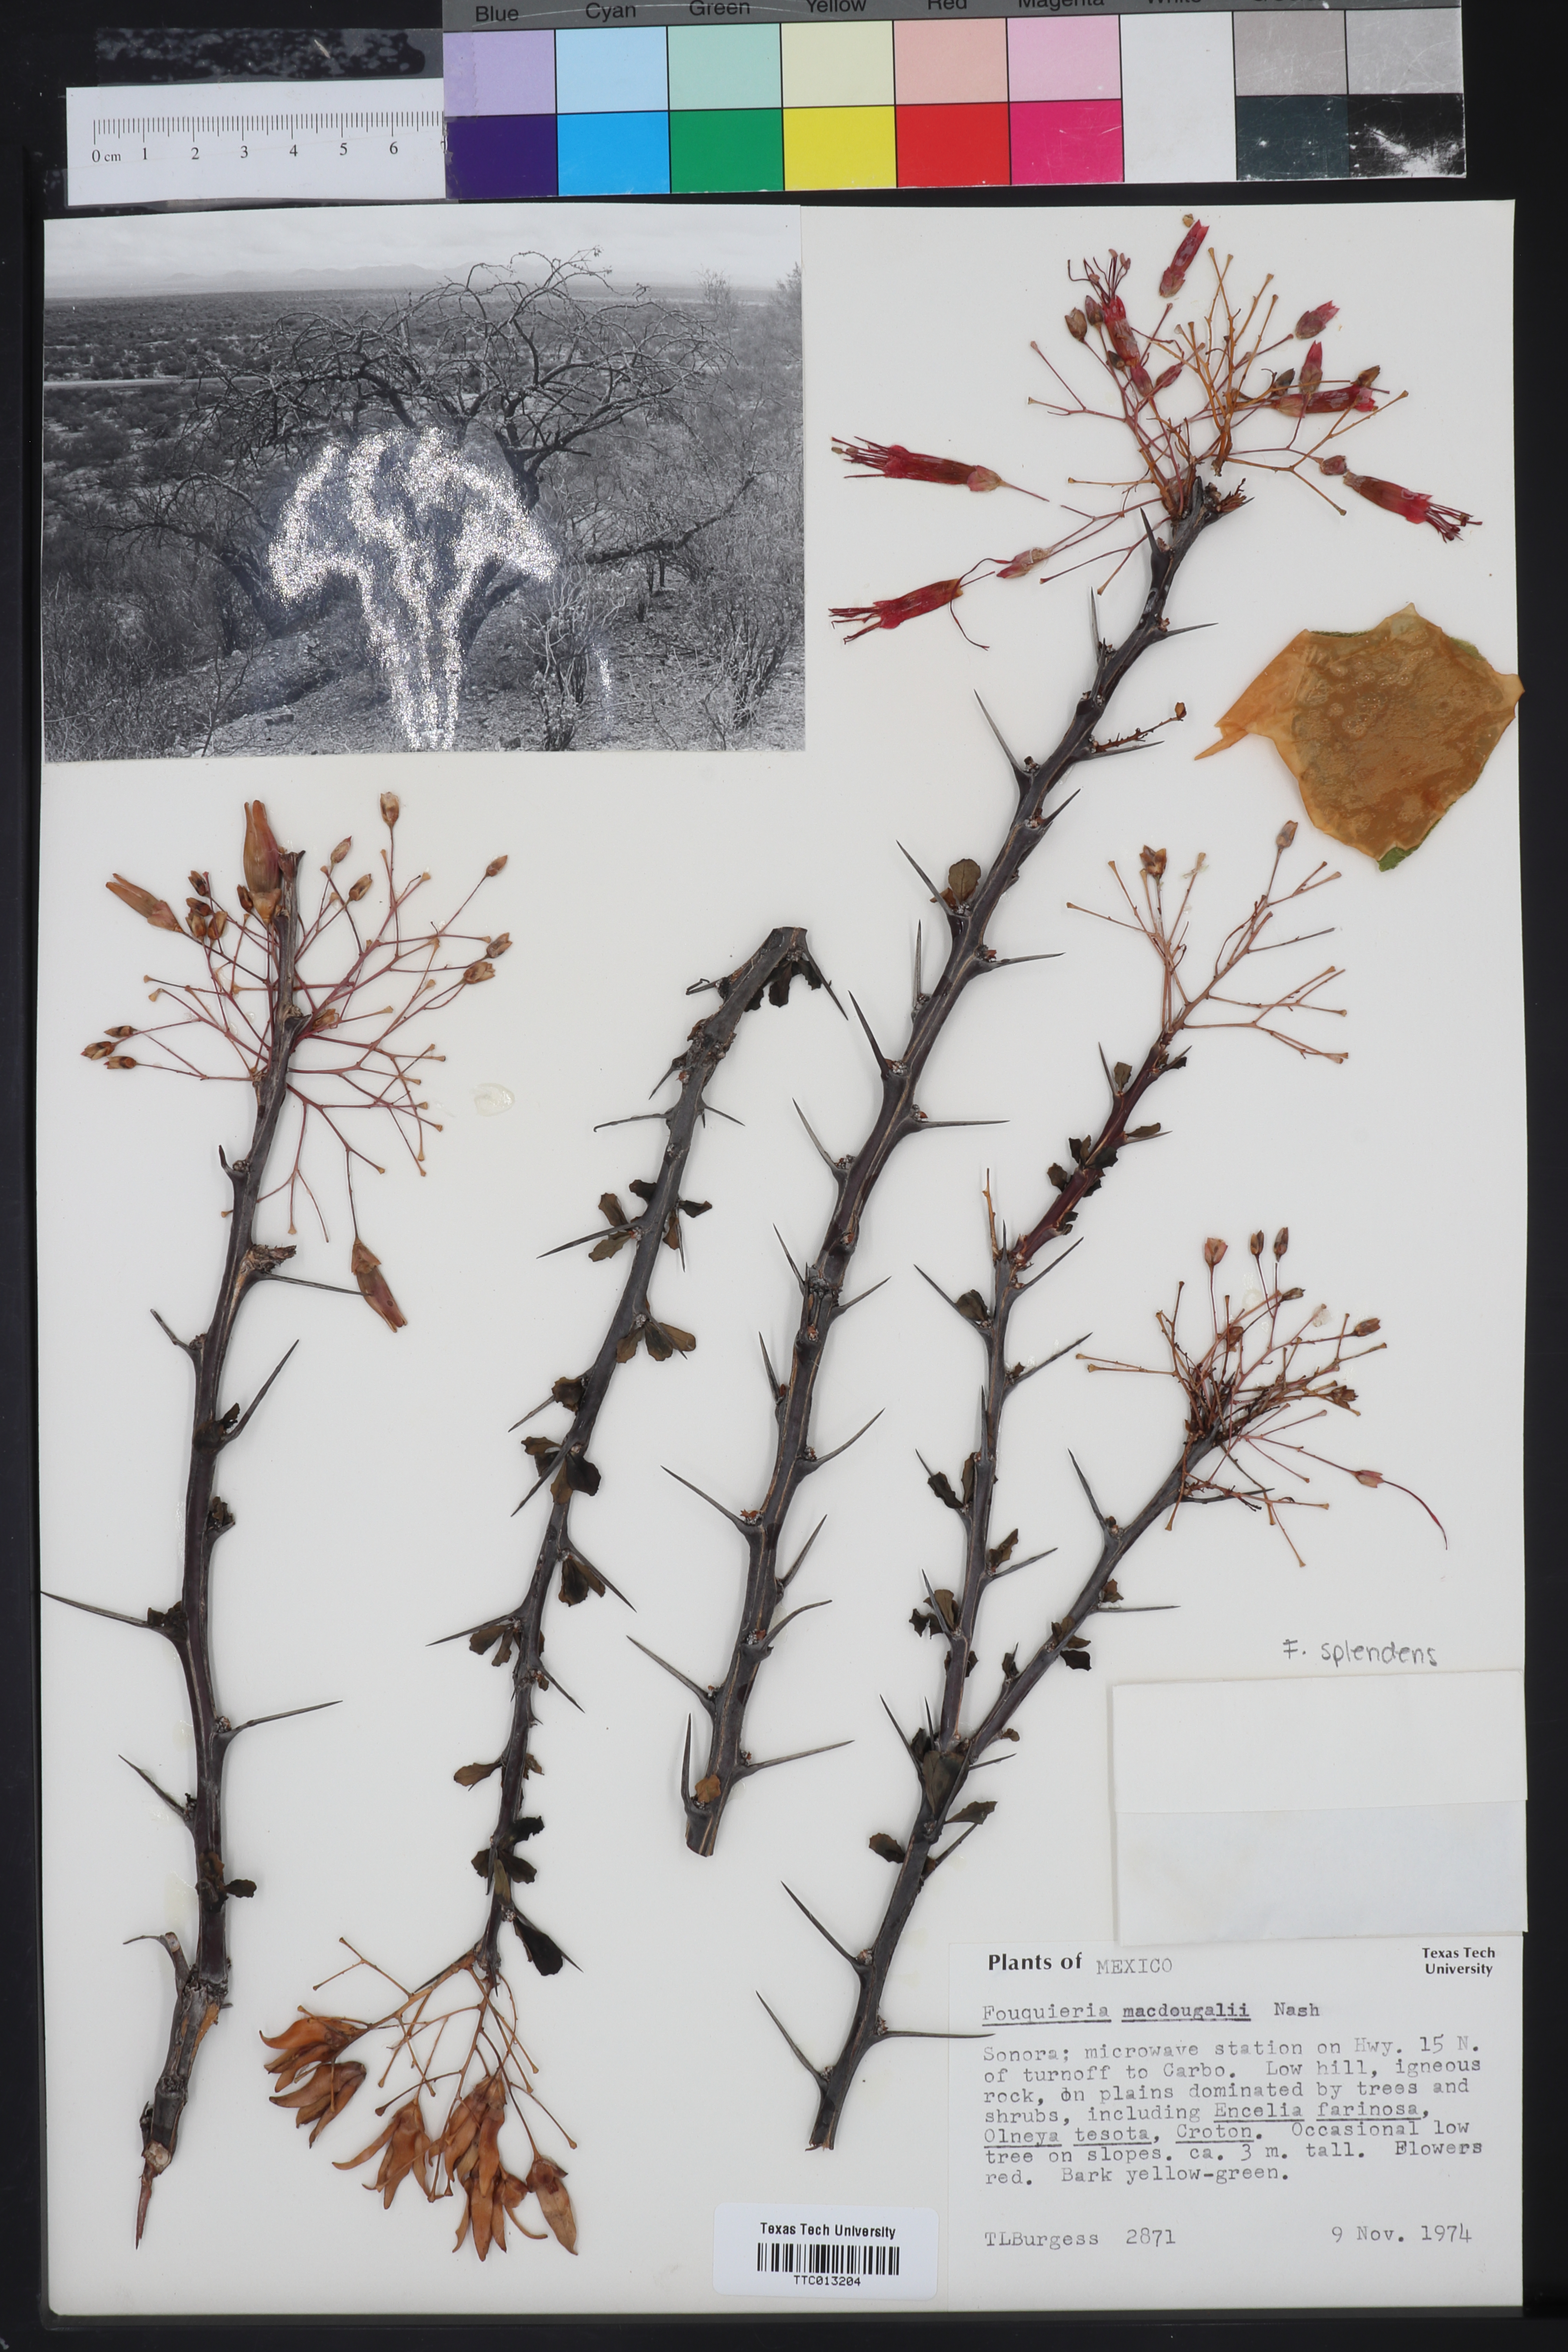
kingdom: Plantae
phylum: Tracheophyta
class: Magnoliopsida
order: Ericales
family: Fouquieriaceae
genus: Fouquieria
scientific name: Fouquieria macdougalii
